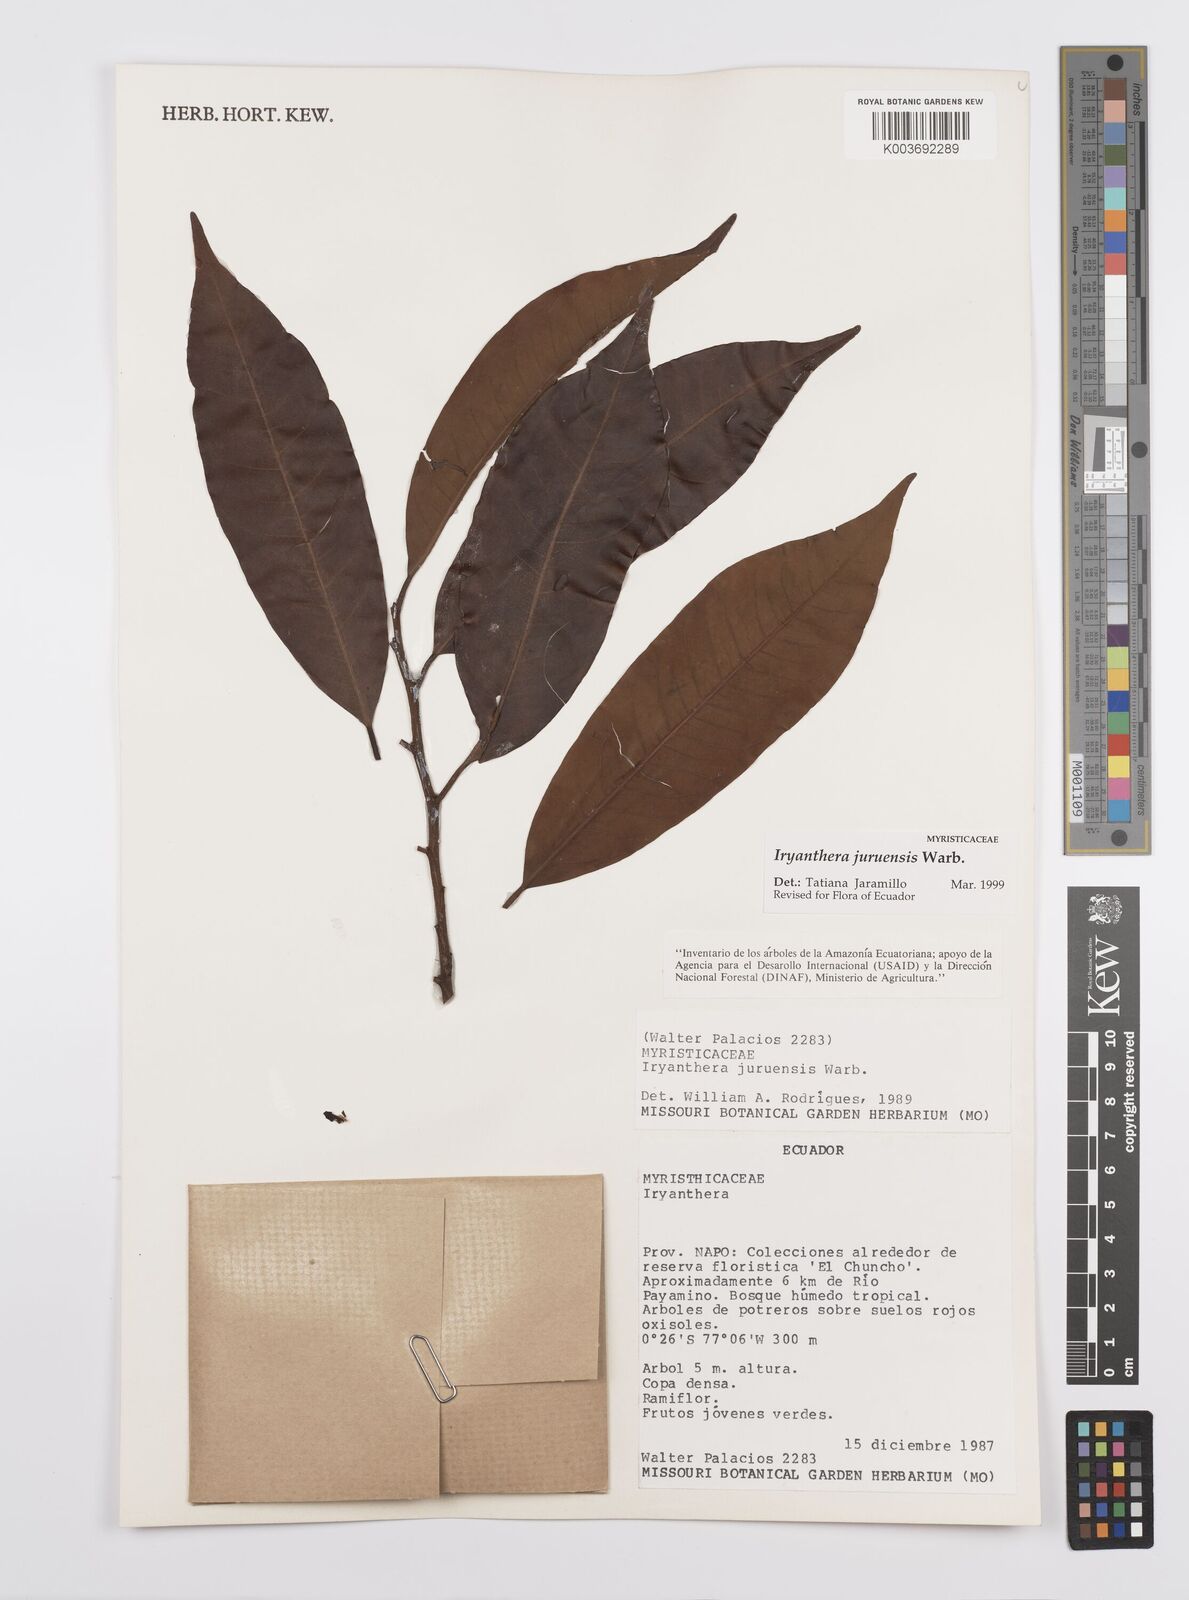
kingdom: Plantae
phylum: Tracheophyta
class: Magnoliopsida
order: Magnoliales
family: Myristicaceae
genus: Iryanthera
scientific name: Iryanthera juruensis
